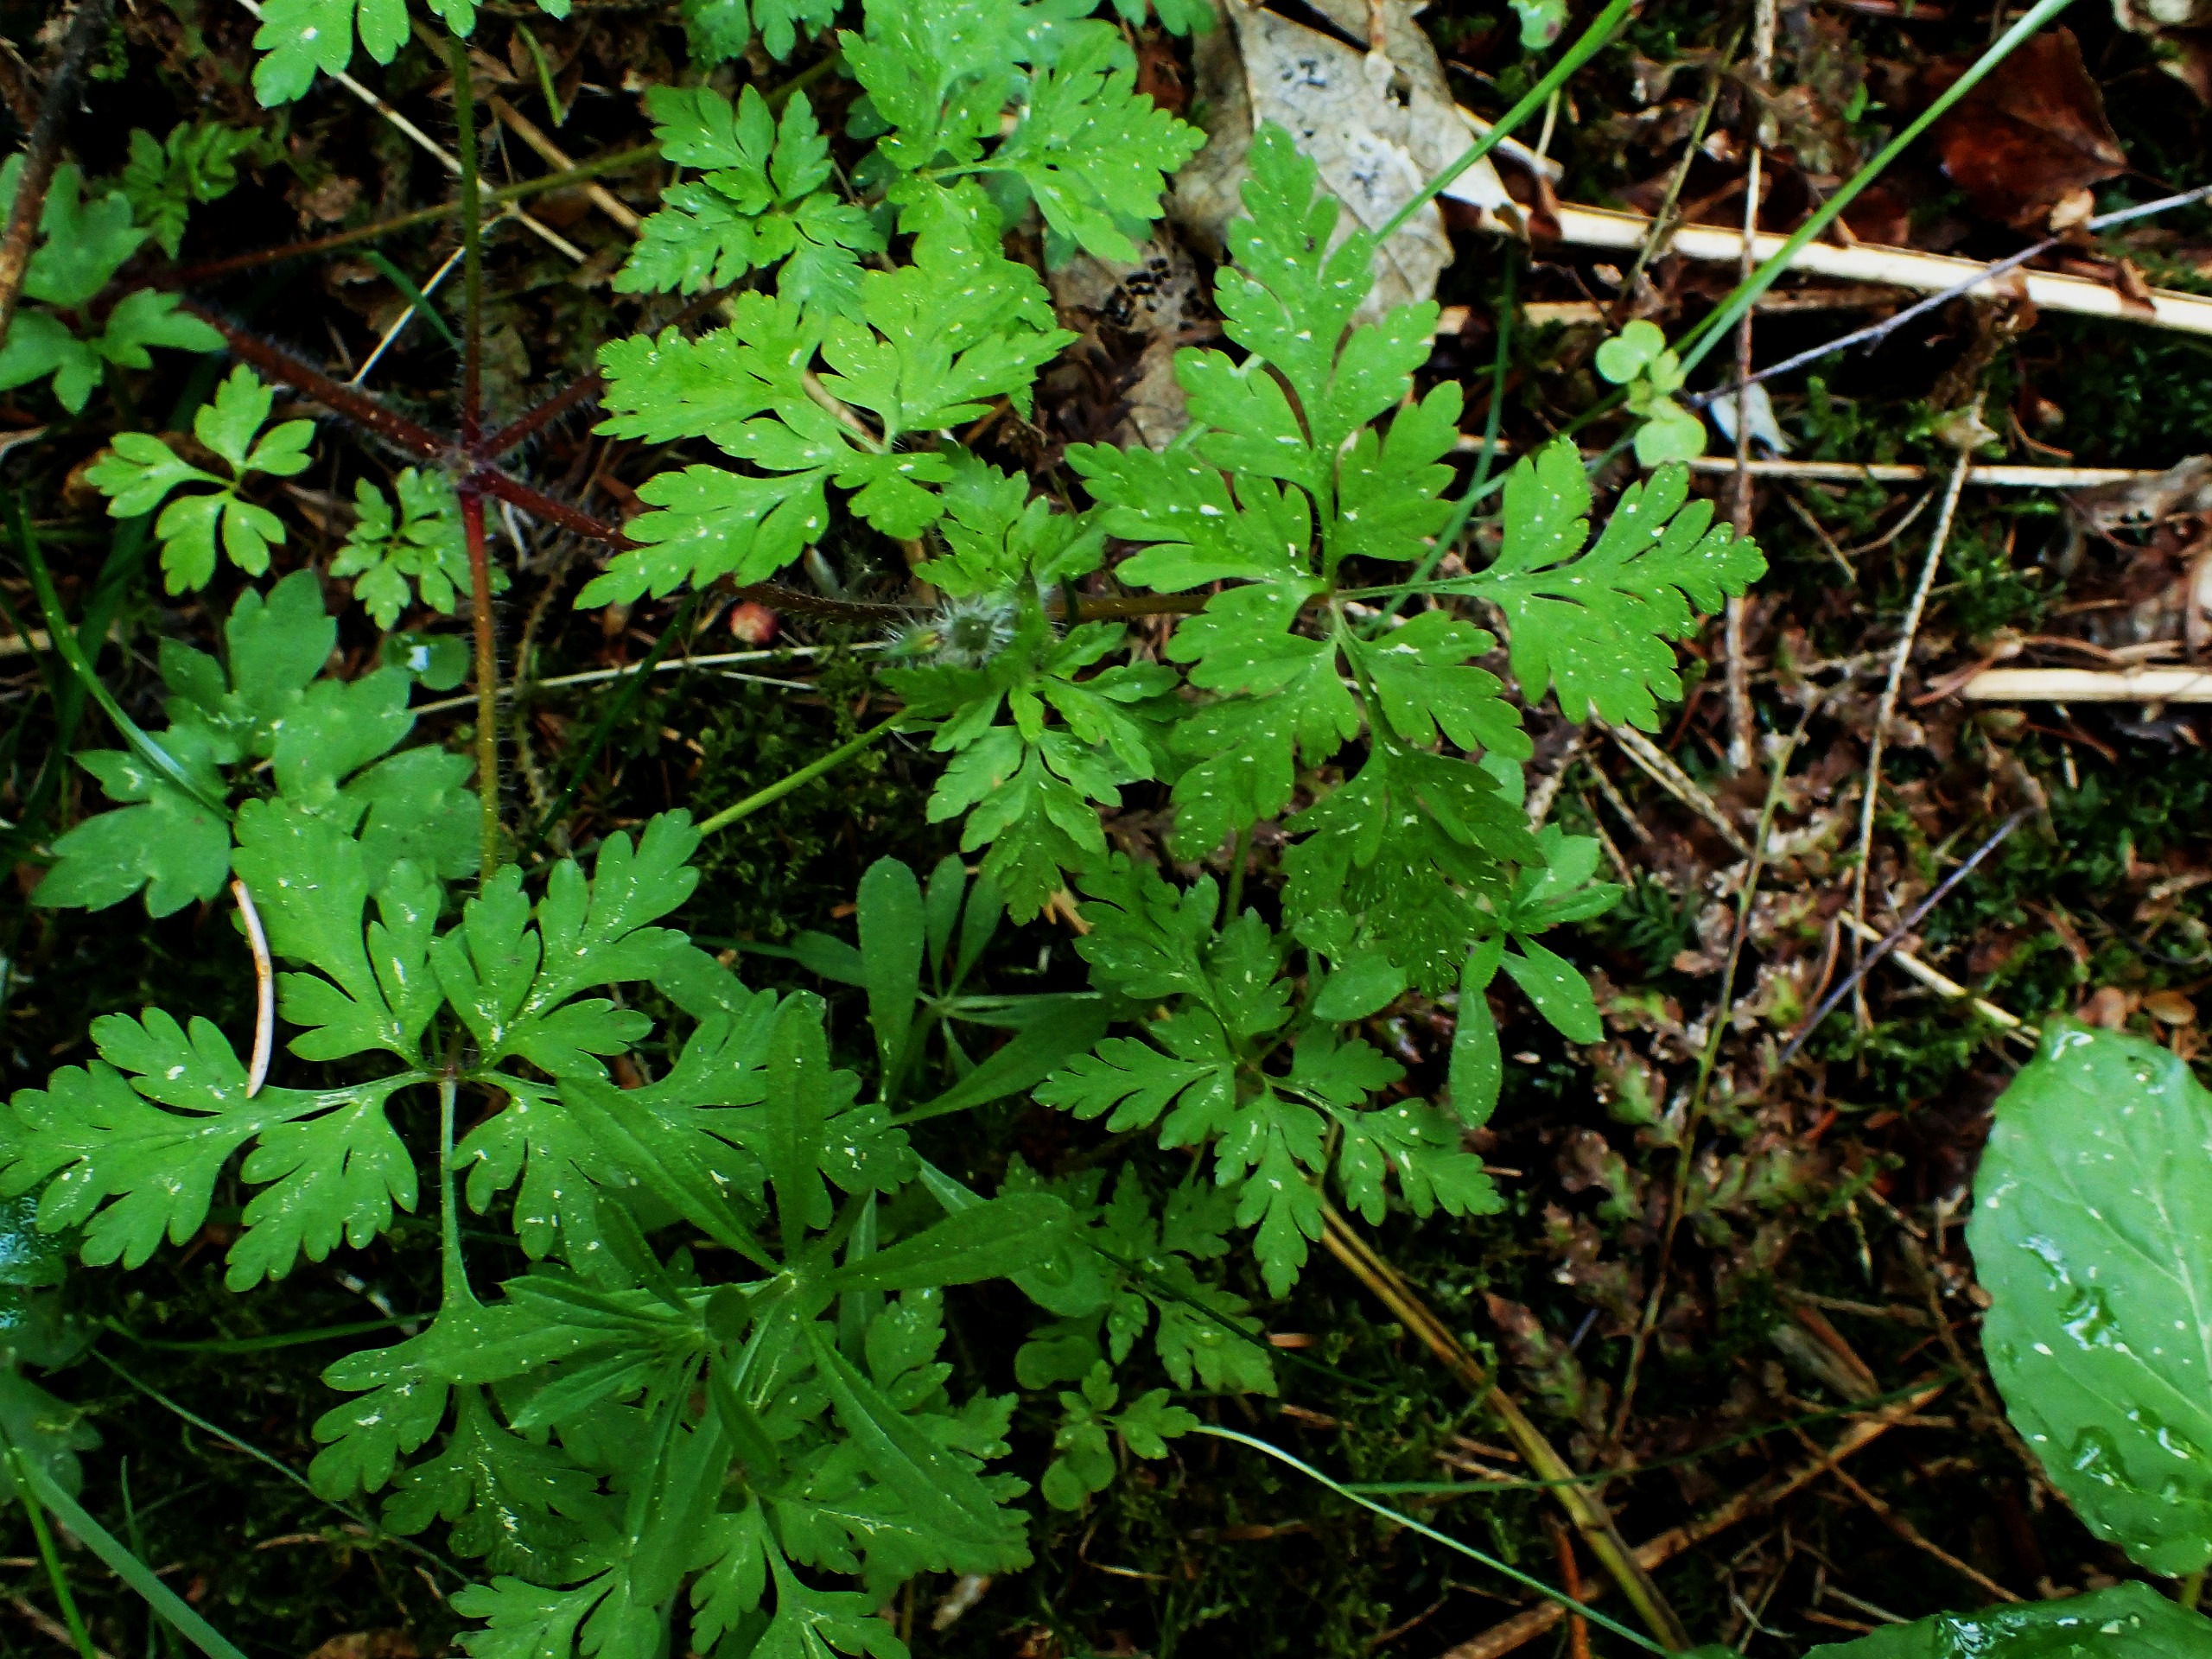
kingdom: Plantae
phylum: Tracheophyta
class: Magnoliopsida
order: Geraniales
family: Geraniaceae
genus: Geranium
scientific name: Geranium robertianum
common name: Stinkende storkenæb
